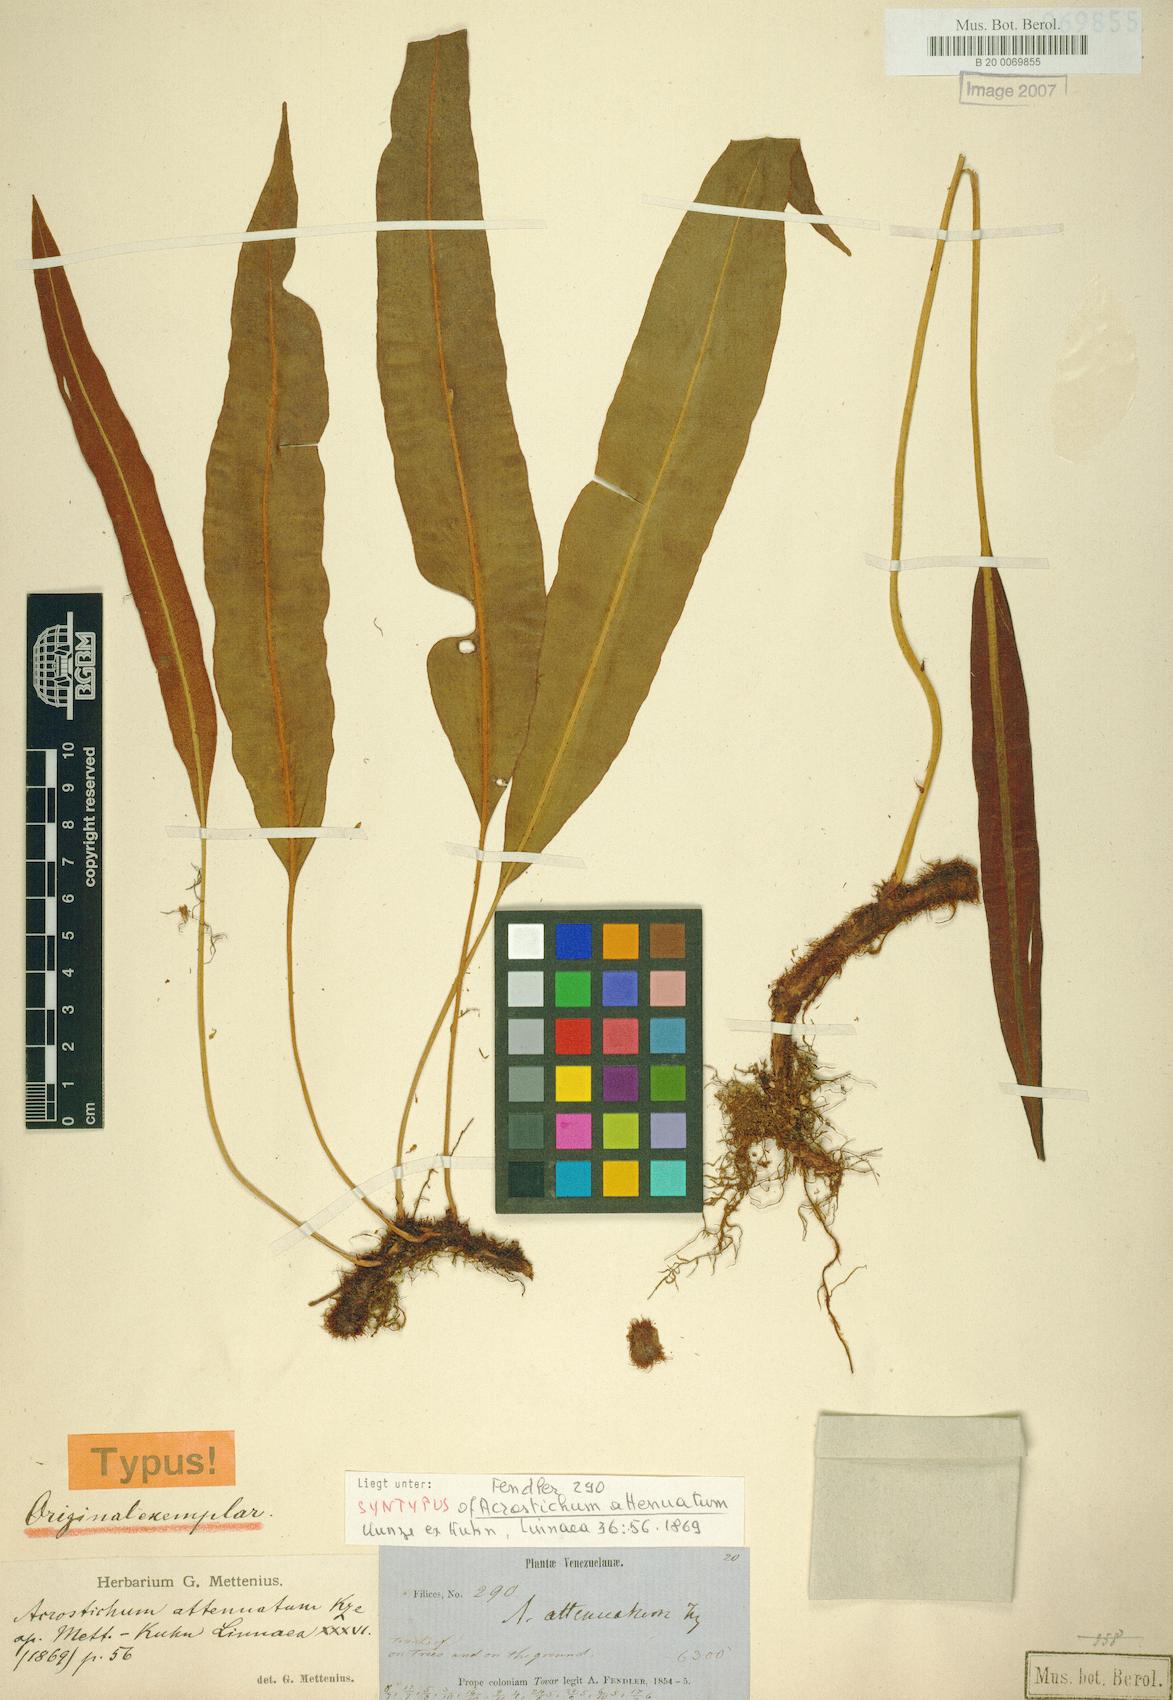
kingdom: Plantae
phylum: Tracheophyta
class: Polypodiopsida
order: Polypodiales
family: Dryopteridaceae
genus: Elaphoglossum
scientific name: Elaphoglossum hoffmannii
